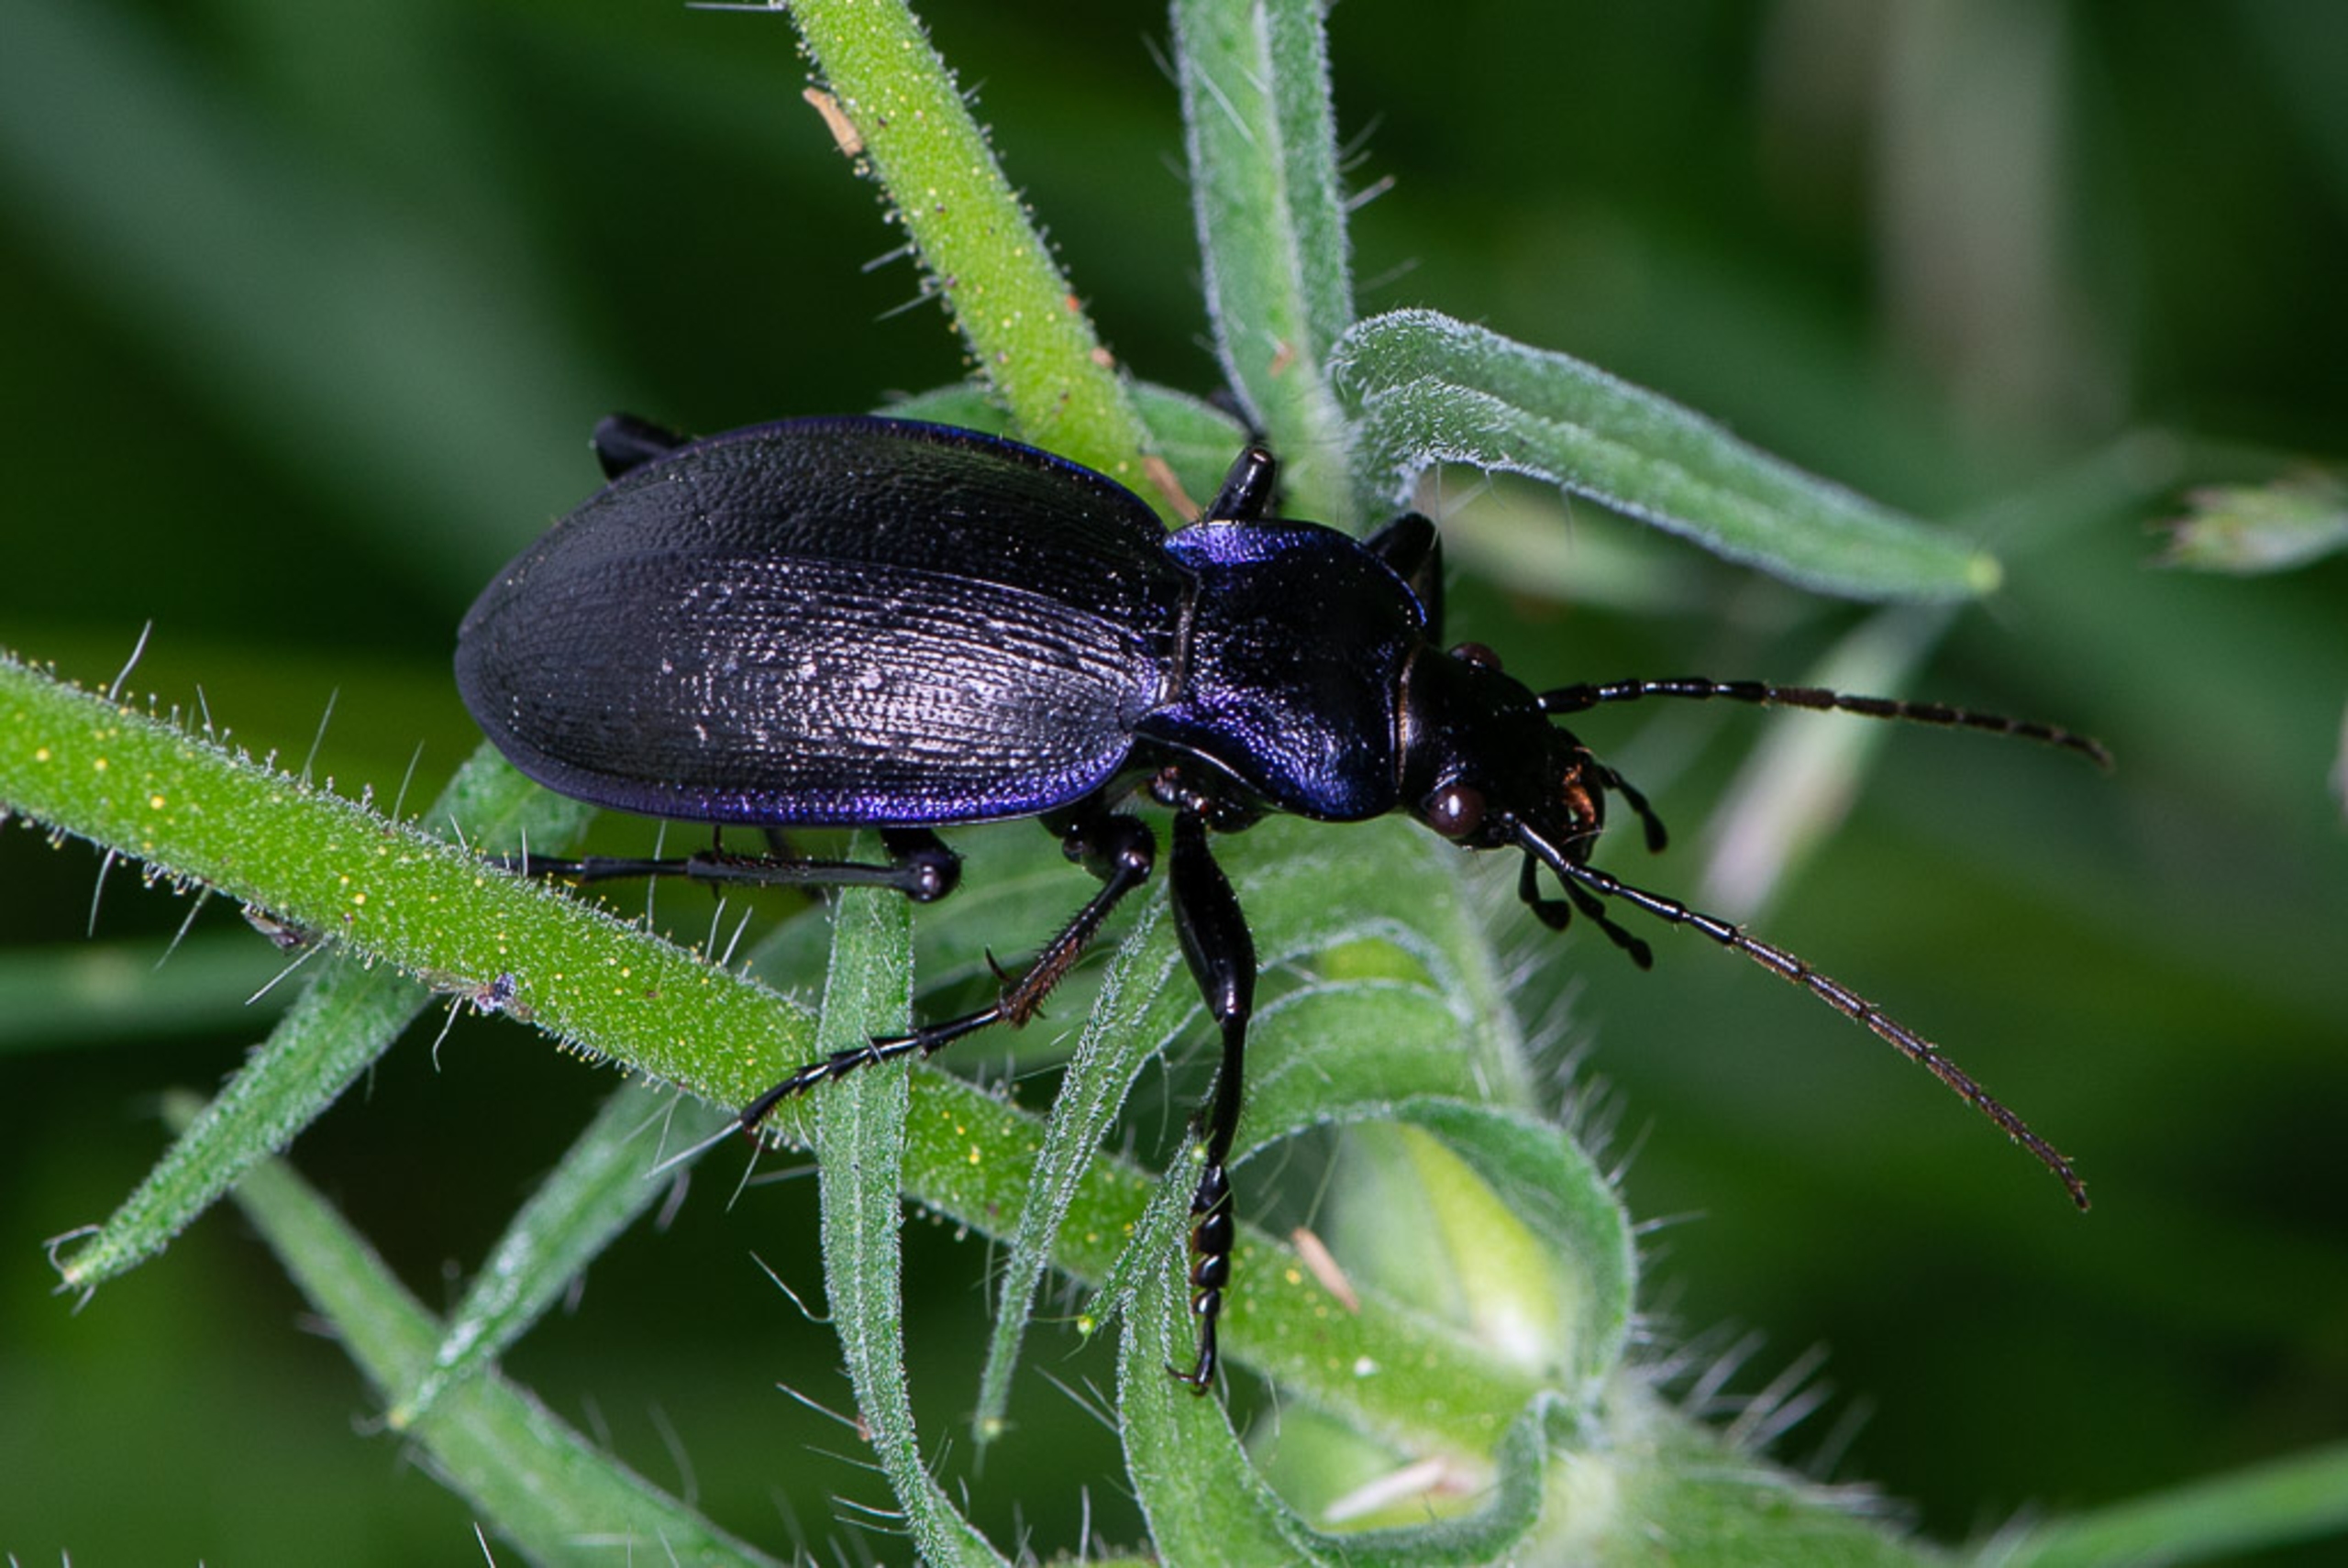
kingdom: Animalia
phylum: Arthropoda
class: Insecta
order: Coleoptera
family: Carabidae
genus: Carabus
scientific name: Carabus problematicus
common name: Jysk løber
